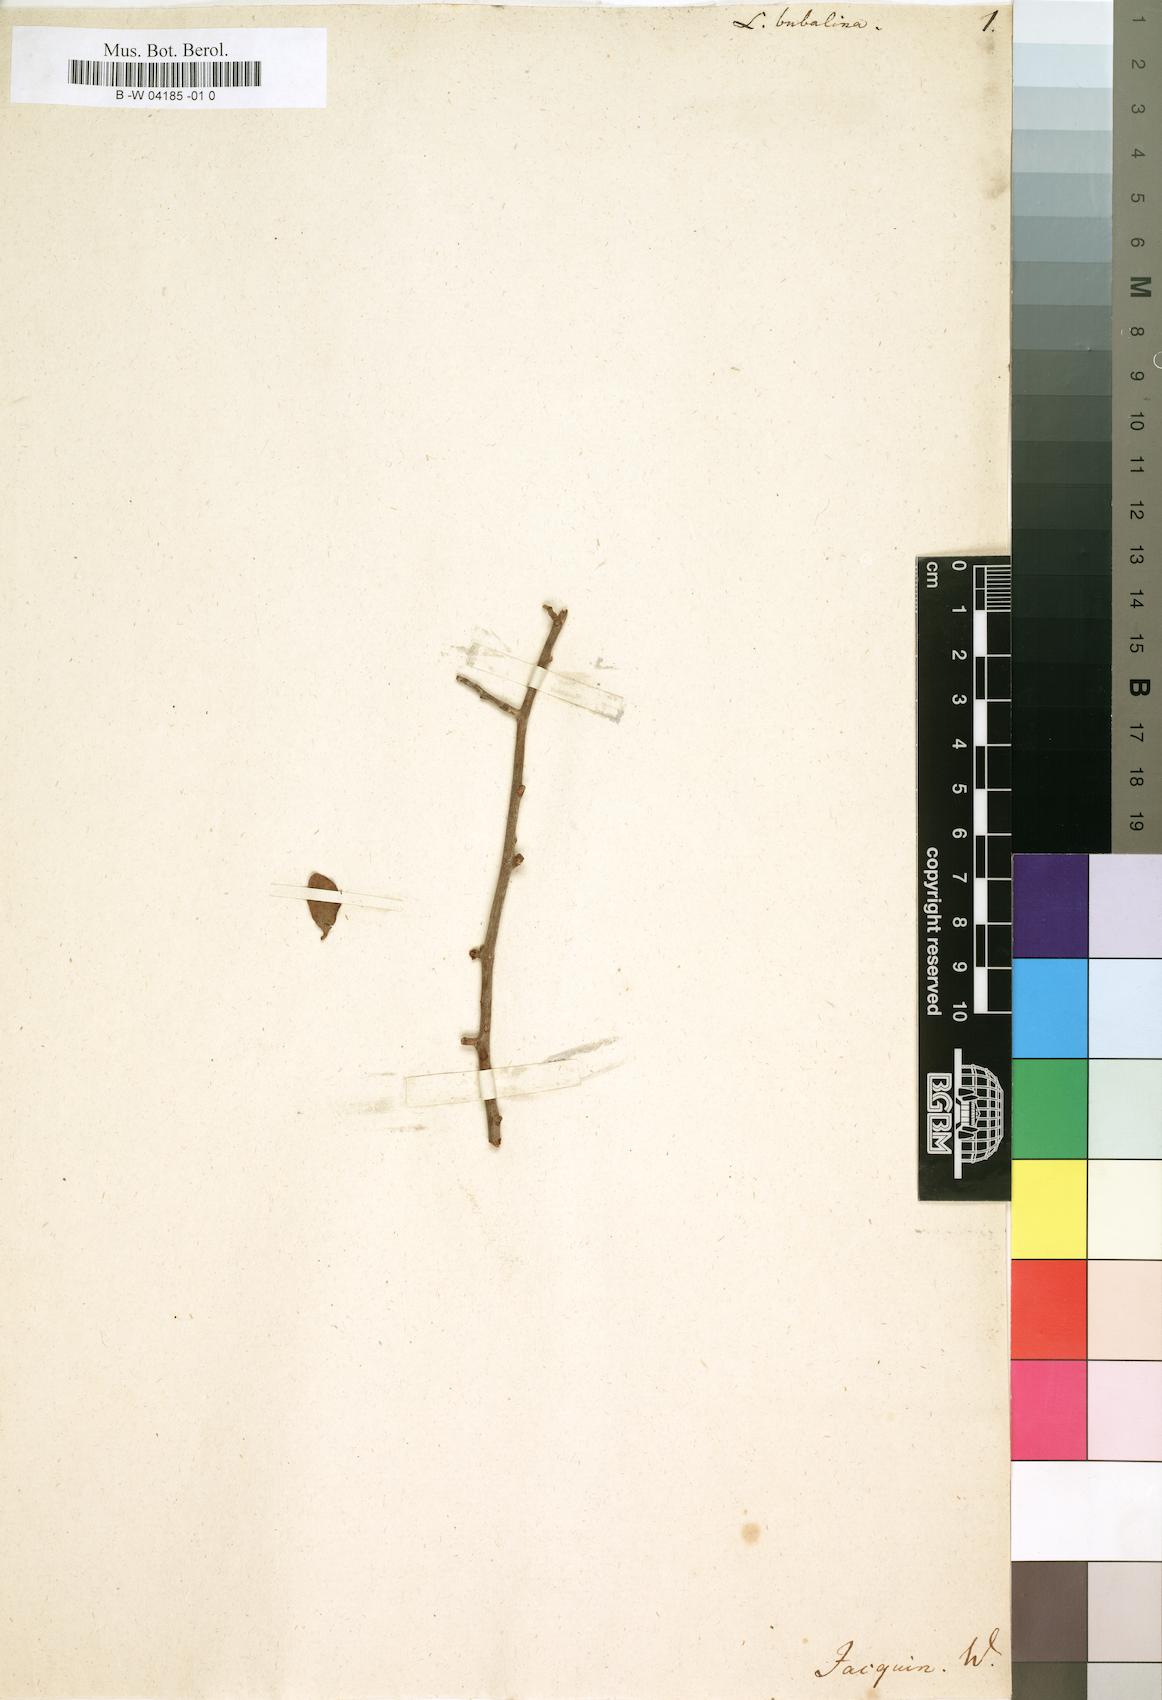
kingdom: Plantae
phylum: Tracheophyta
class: Magnoliopsida
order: Gentianales
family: Rubiaceae
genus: Burchellia
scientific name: Burchellia bubalina
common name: Wild pomegranate
